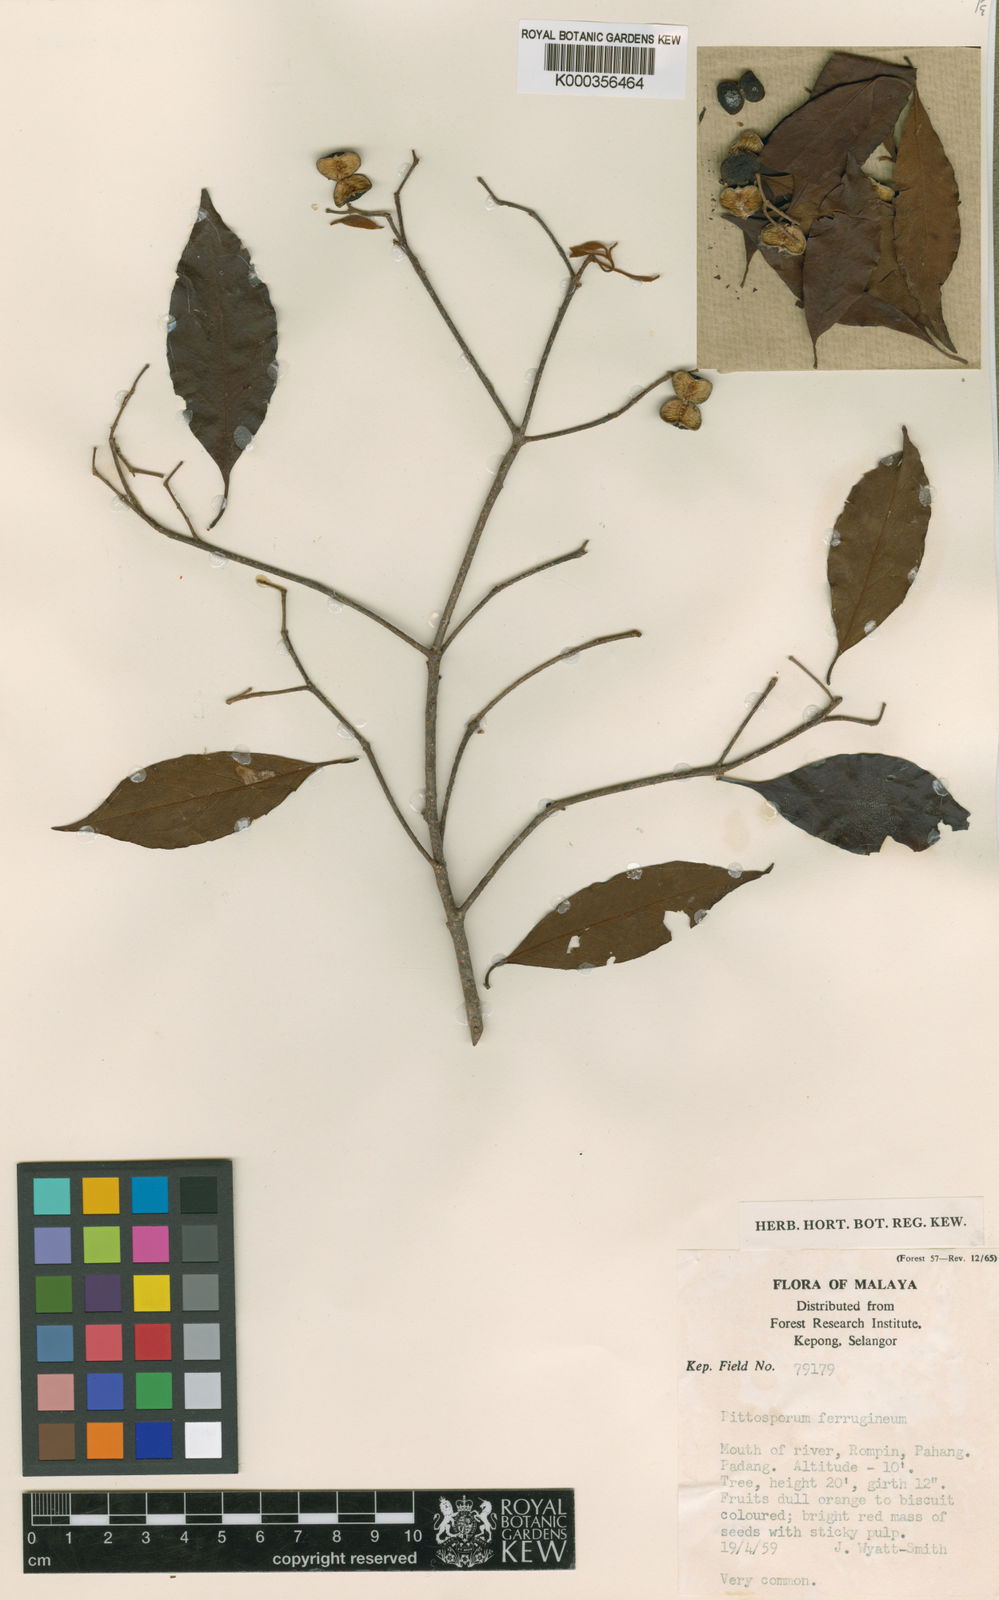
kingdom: Plantae
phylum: Tracheophyta
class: Magnoliopsida
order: Apiales
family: Pittosporaceae
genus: Pittosporum
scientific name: Pittosporum ferrugineum
